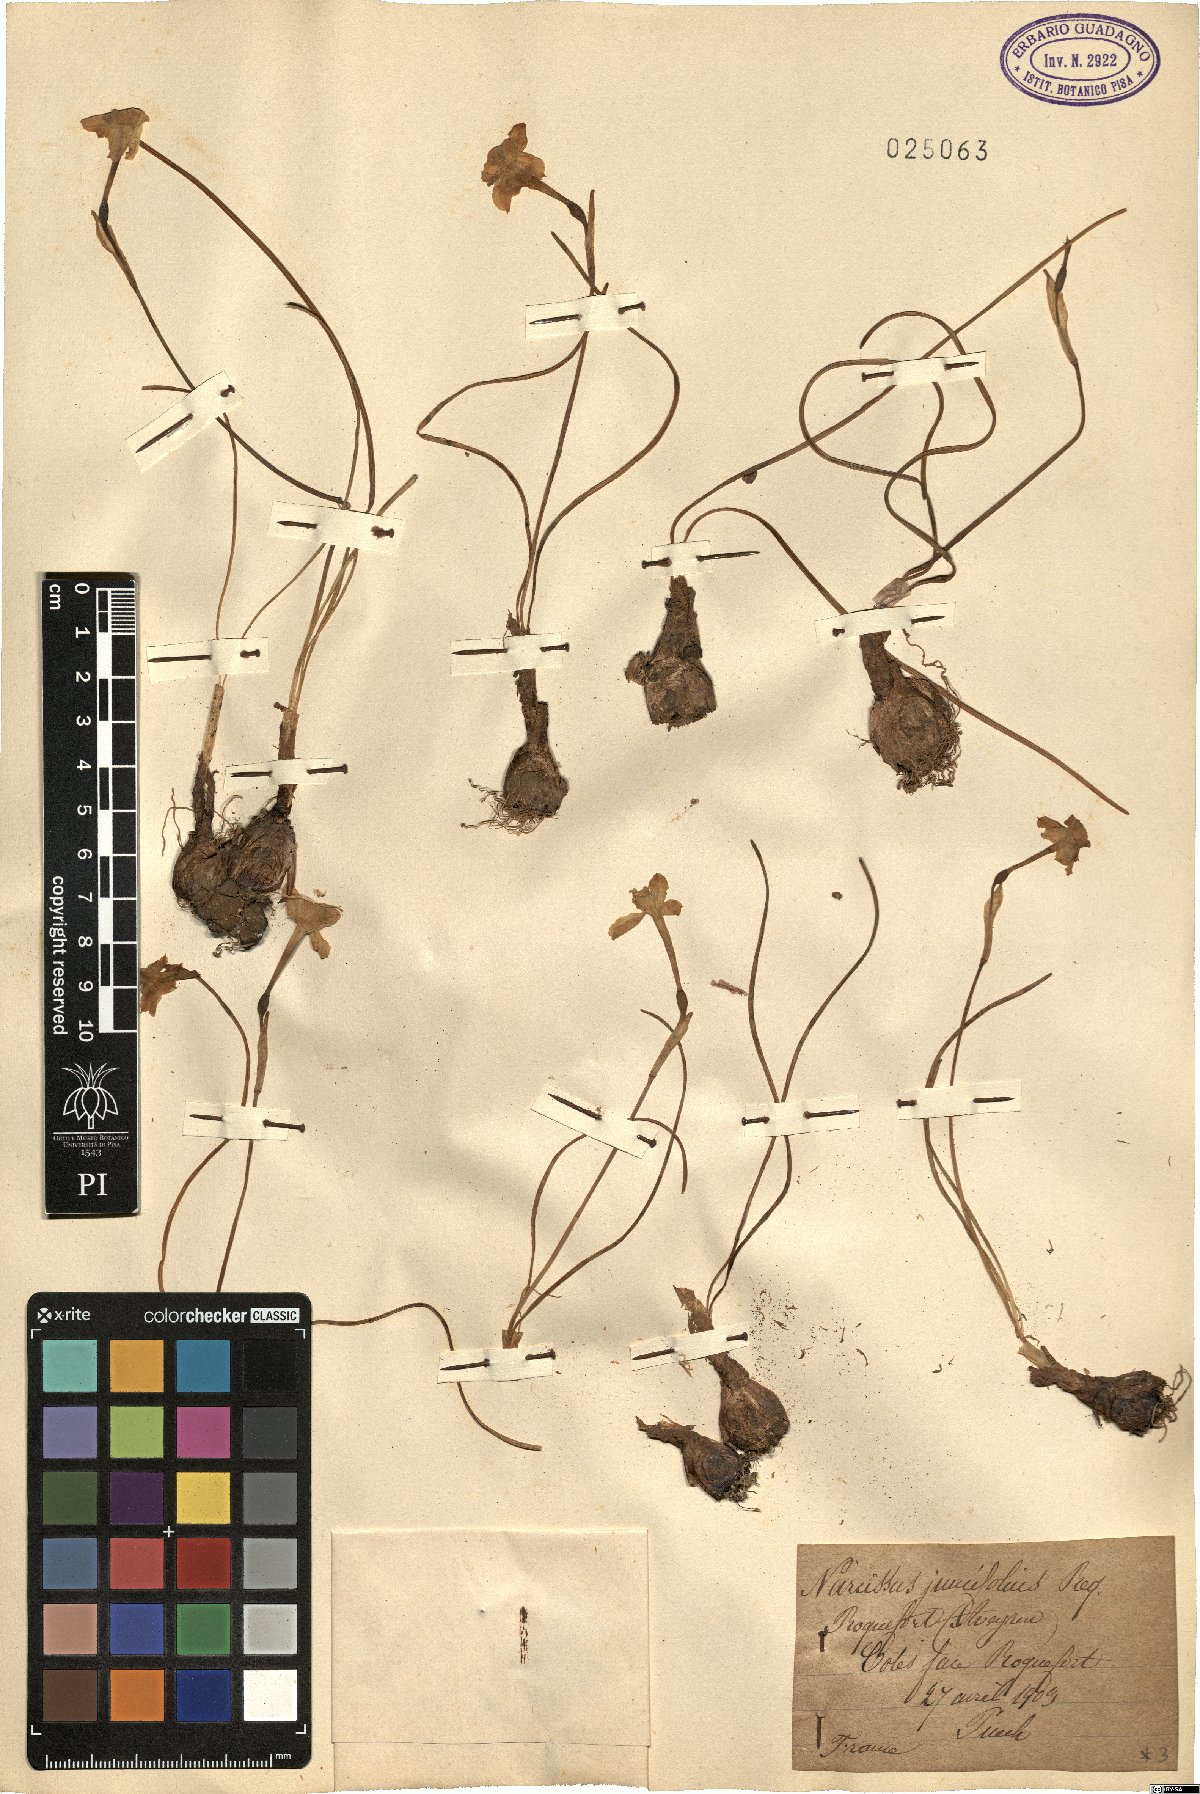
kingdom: Plantae
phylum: Tracheophyta
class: Liliopsida
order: Asparagales
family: Amaryllidaceae
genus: Narcissus
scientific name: Narcissus assoanus
